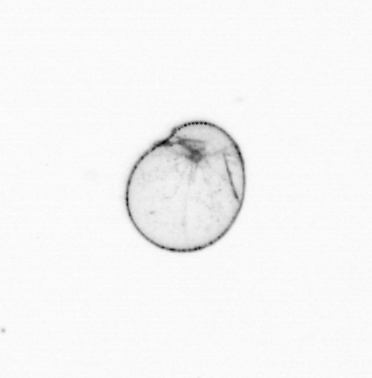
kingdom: Chromista
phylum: Myzozoa
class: Dinophyceae
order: Noctilucales
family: Noctilucaceae
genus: Noctiluca
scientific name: Noctiluca scintillans
